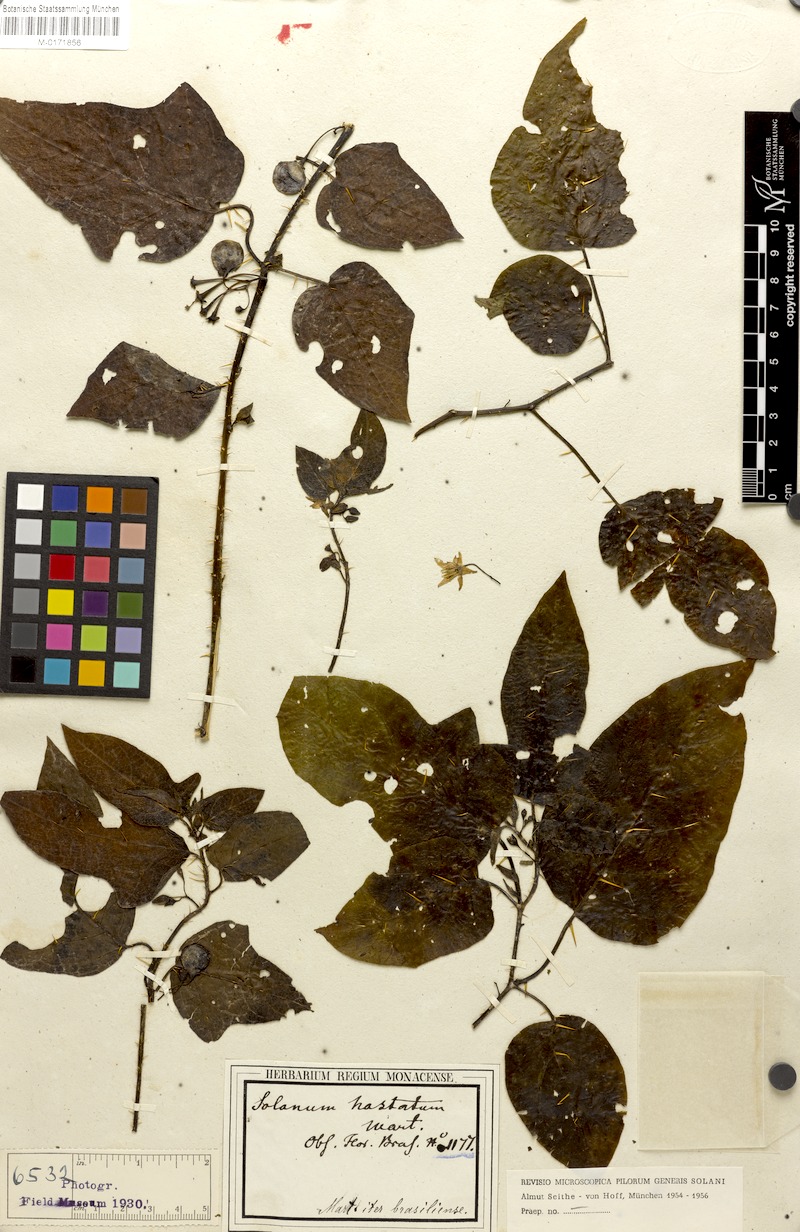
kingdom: Plantae
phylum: Tracheophyta
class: Magnoliopsida
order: Solanales
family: Solanaceae
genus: Solanum
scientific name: Solanum acerifolium
